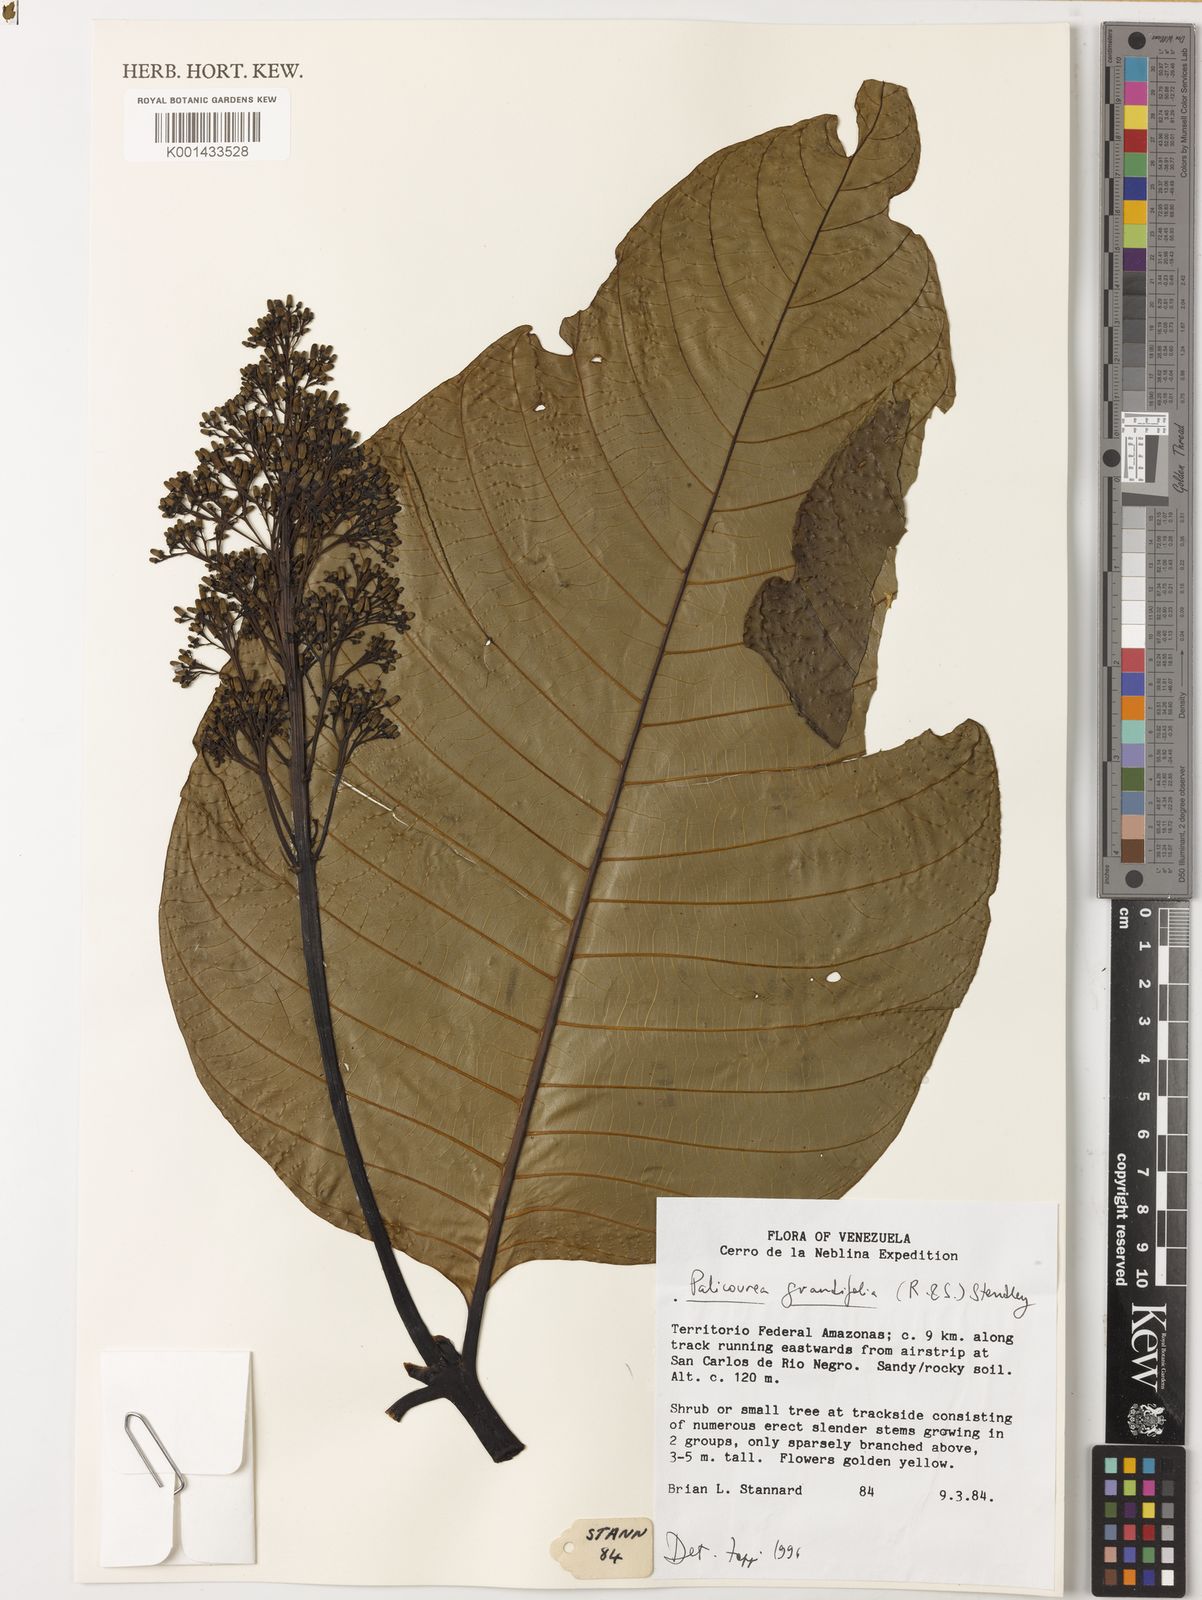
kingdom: Plantae
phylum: Tracheophyta
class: Magnoliopsida
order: Gentianales
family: Rubiaceae
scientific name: Rubiaceae
